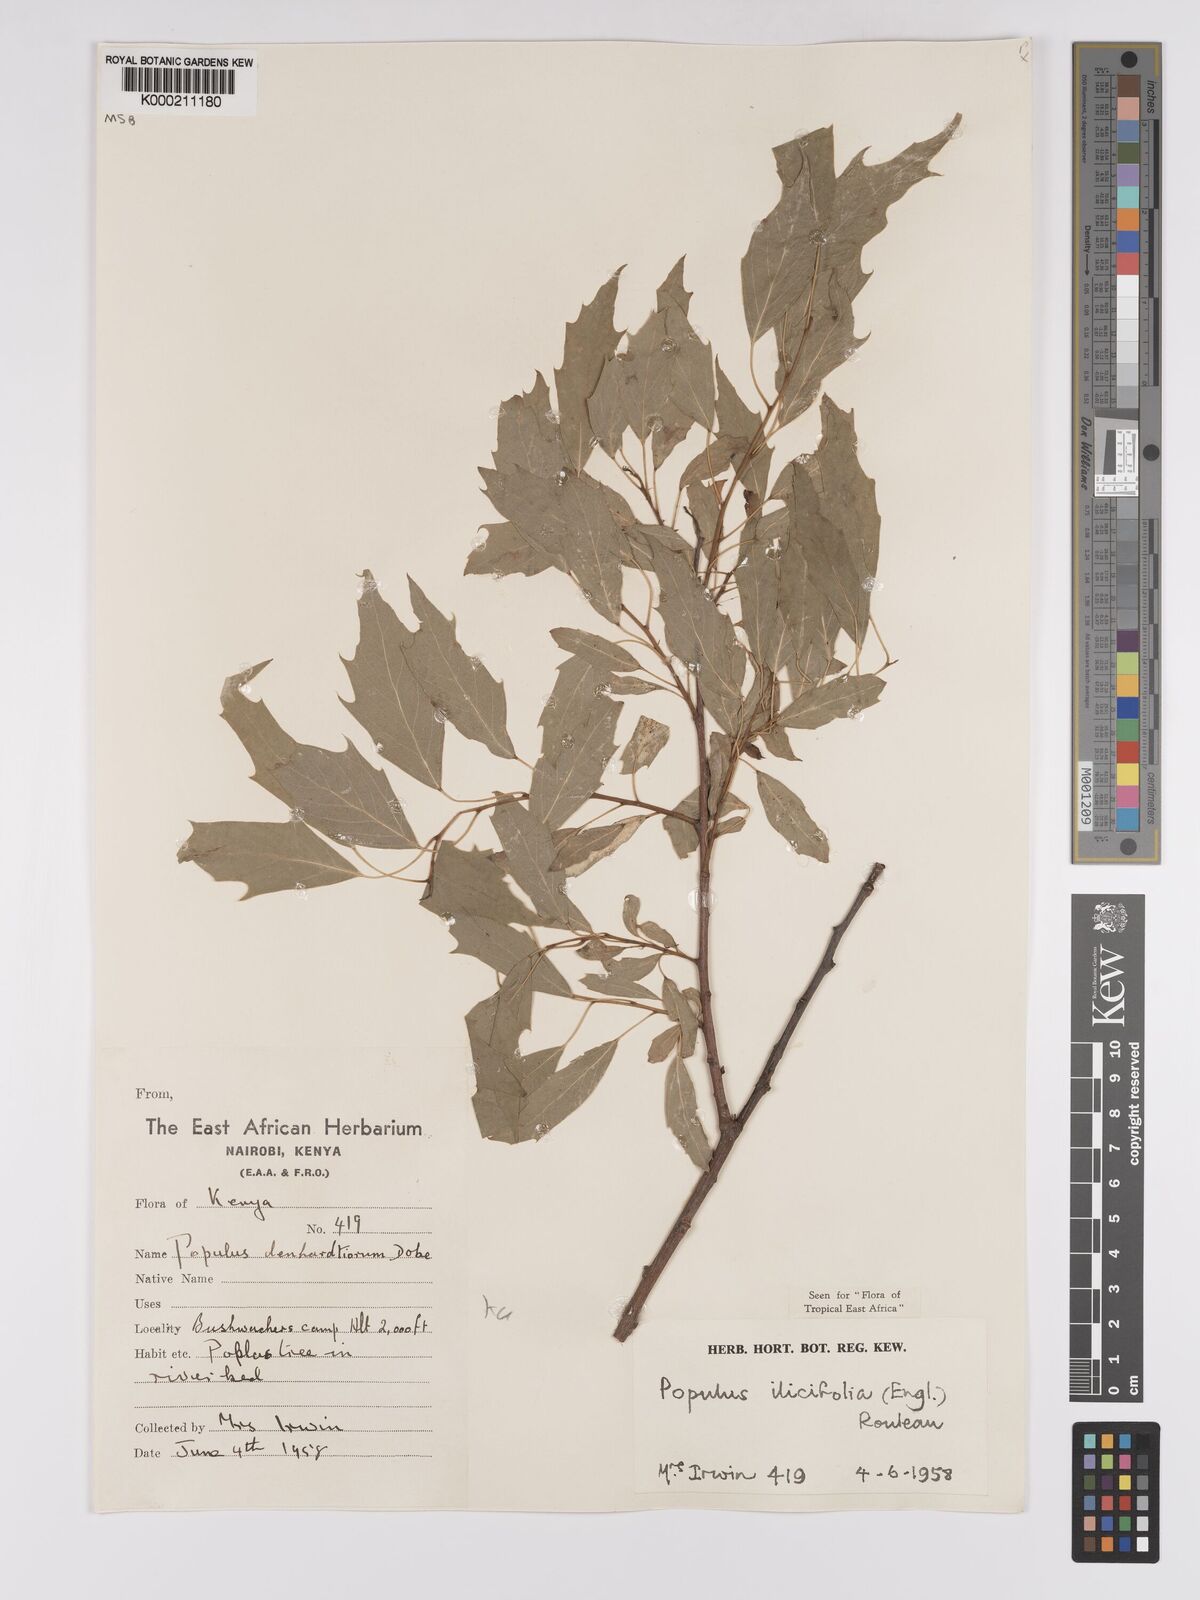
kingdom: Plantae
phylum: Tracheophyta
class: Magnoliopsida
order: Malpighiales
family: Salicaceae
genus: Populus
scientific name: Populus ilicifolia
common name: Tana river poplar
